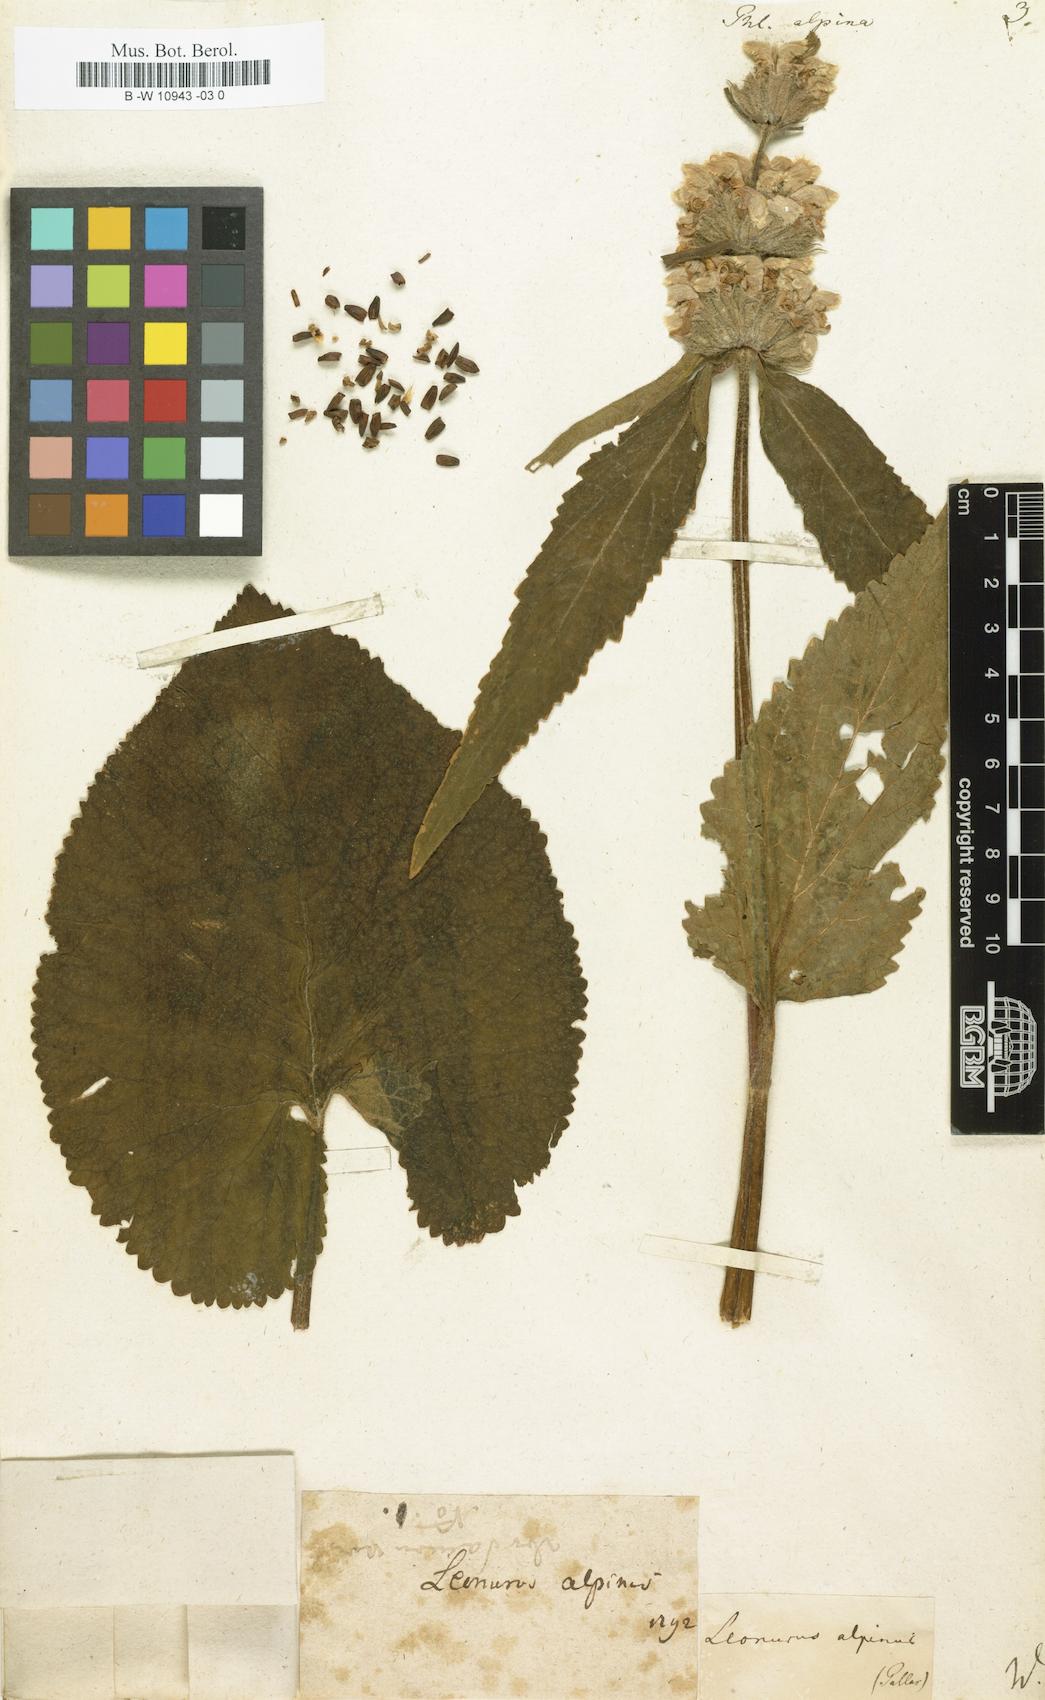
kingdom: Plantae
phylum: Tracheophyta
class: Magnoliopsida
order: Lamiales
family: Lamiaceae
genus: Phlomoides
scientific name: Phlomoides alpina
